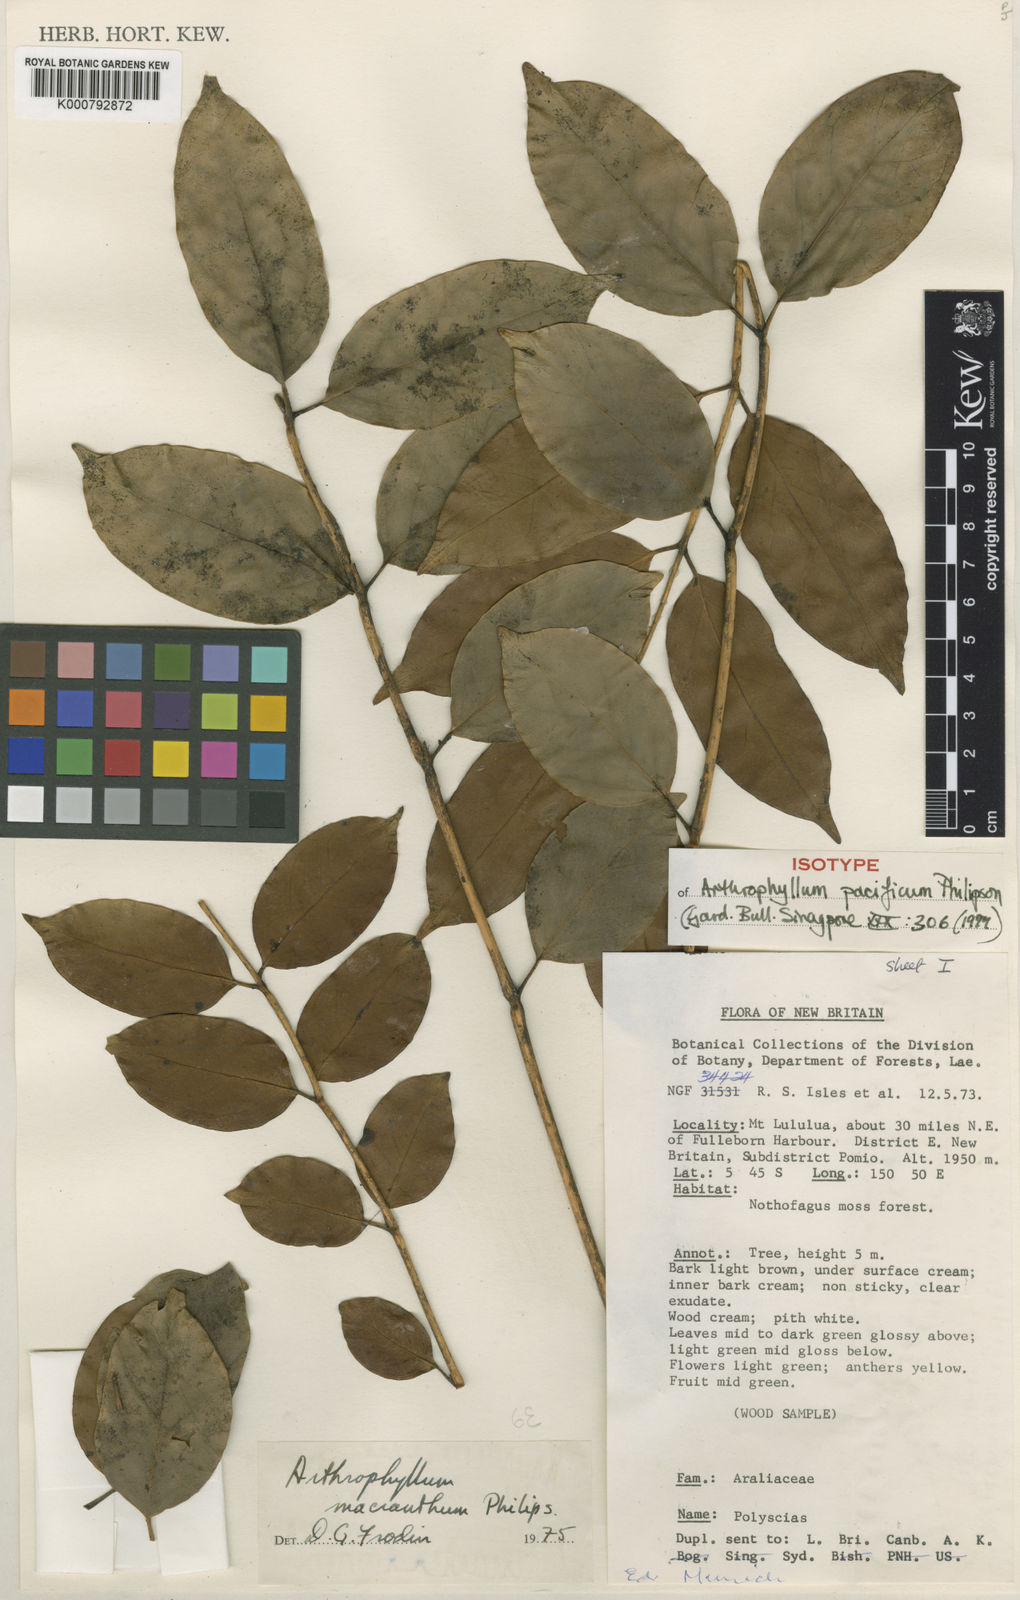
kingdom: Plantae
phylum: Tracheophyta
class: Magnoliopsida
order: Apiales
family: Araliaceae
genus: Polyscias
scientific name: Polyscias macranthum
